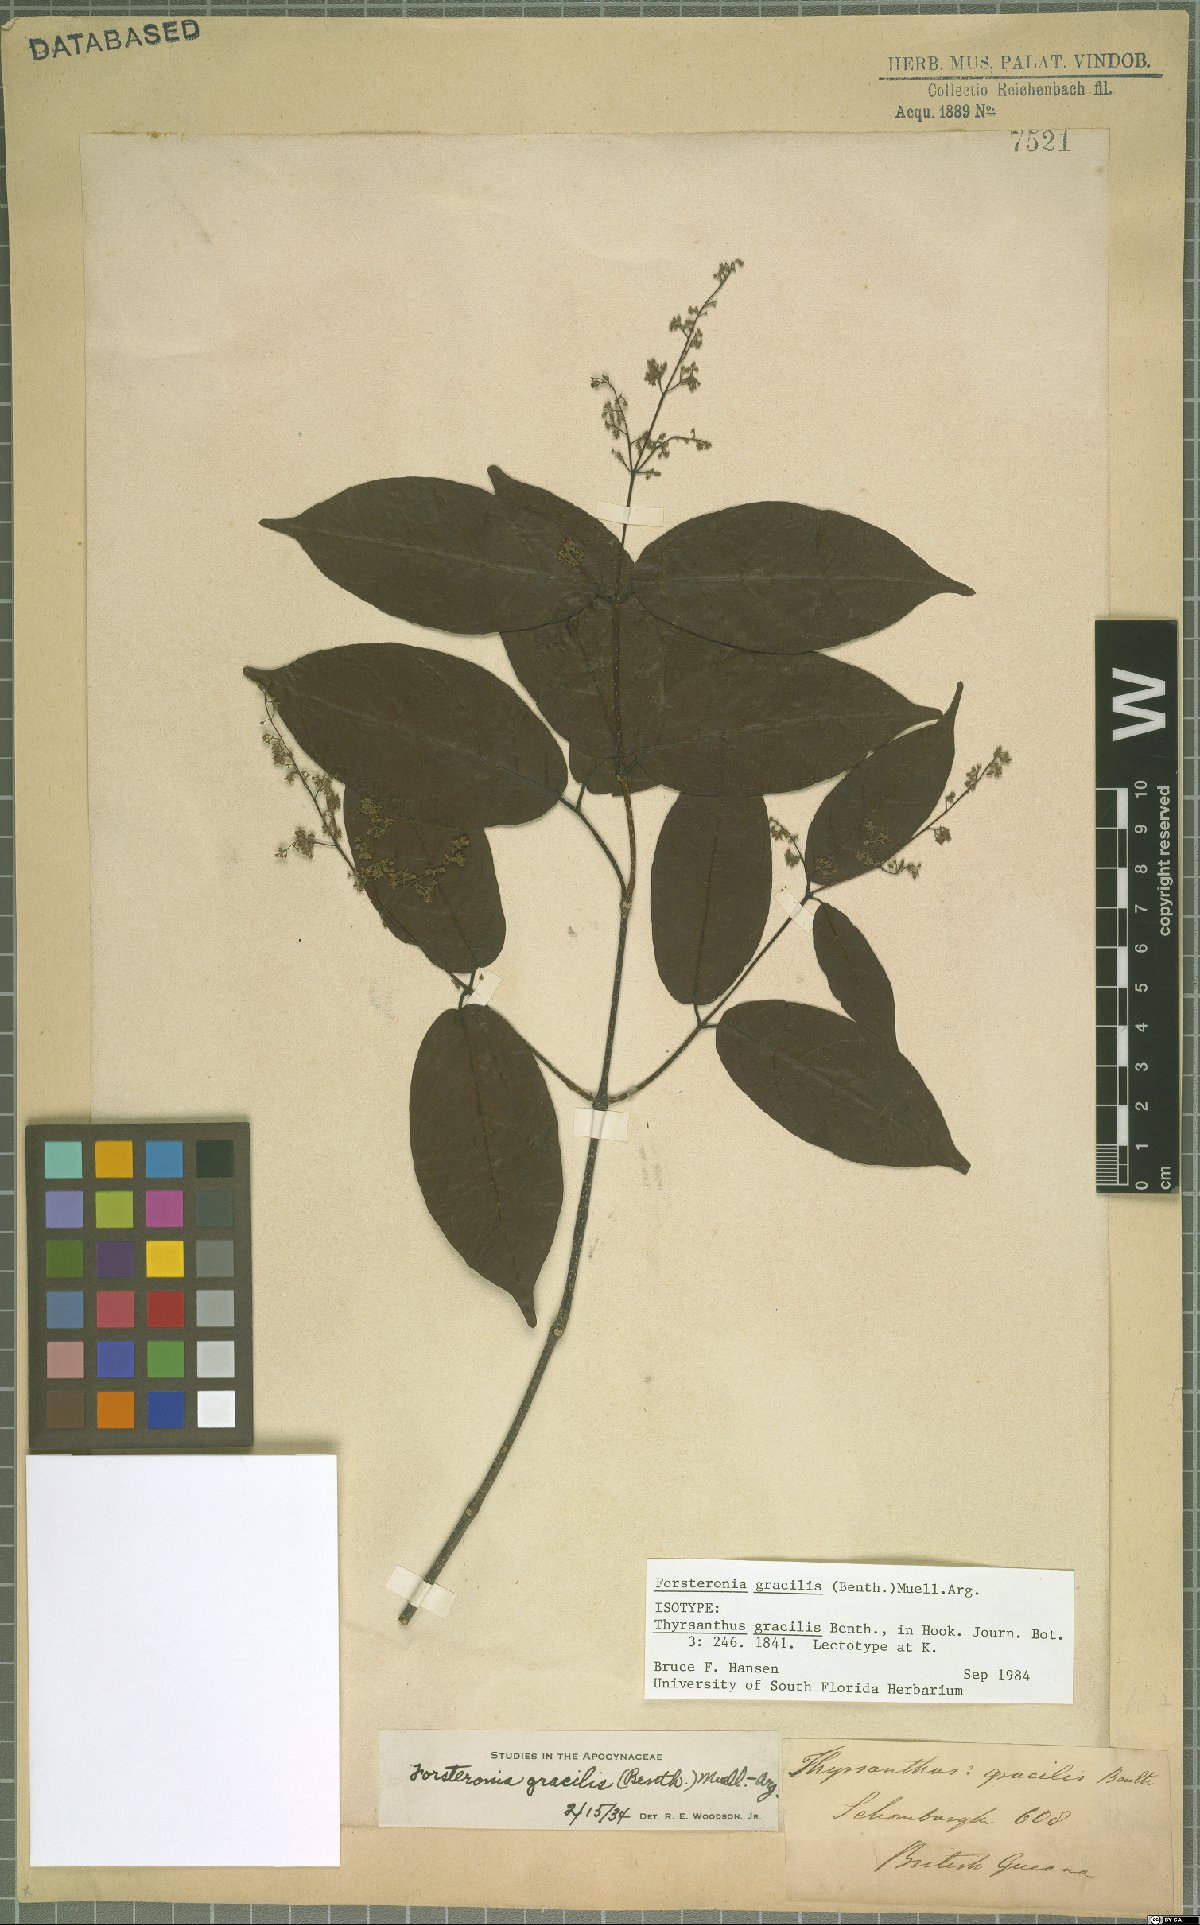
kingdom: Plantae
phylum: Tracheophyta
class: Magnoliopsida
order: Gentianales
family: Apocynaceae
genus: Forsteronia
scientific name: Forsteronia gracilis
